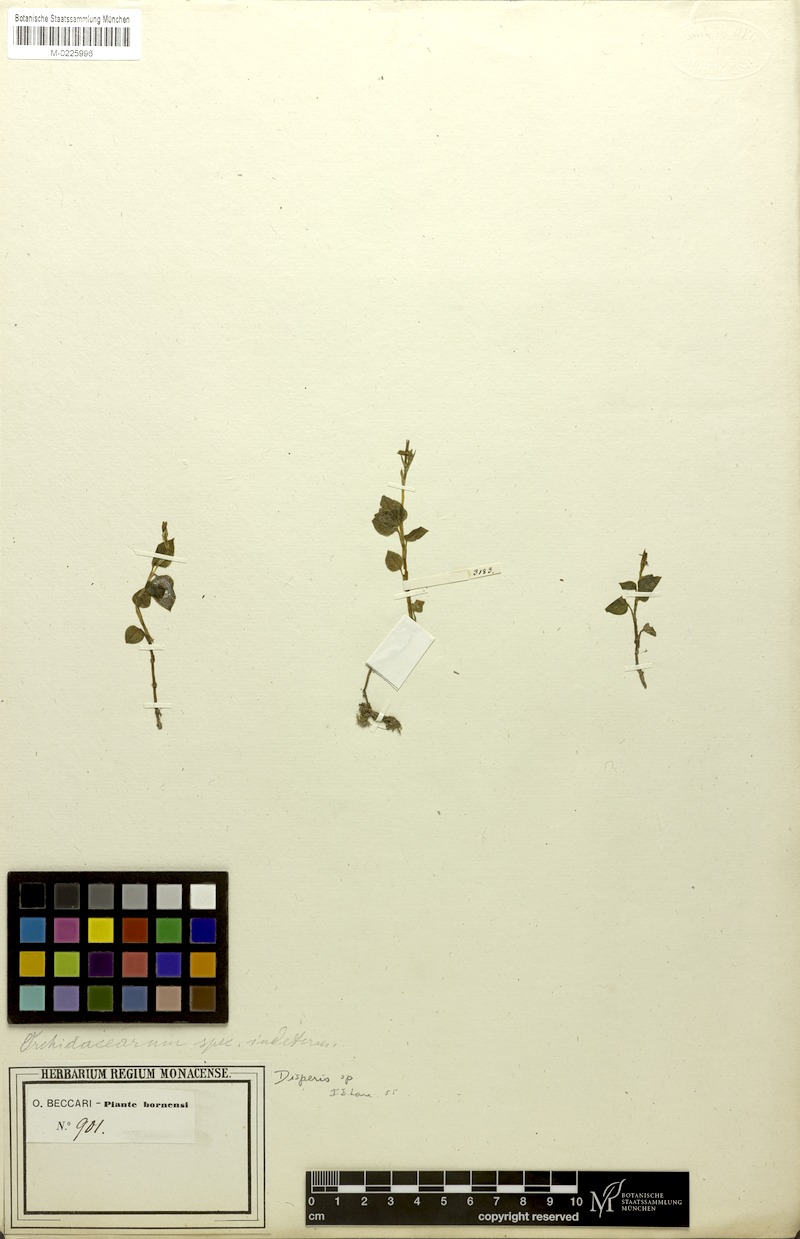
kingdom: Plantae
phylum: Tracheophyta
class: Liliopsida
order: Asparagales
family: Orchidaceae
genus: Vrydagzynea
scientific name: Vrydagzynea beccarii
